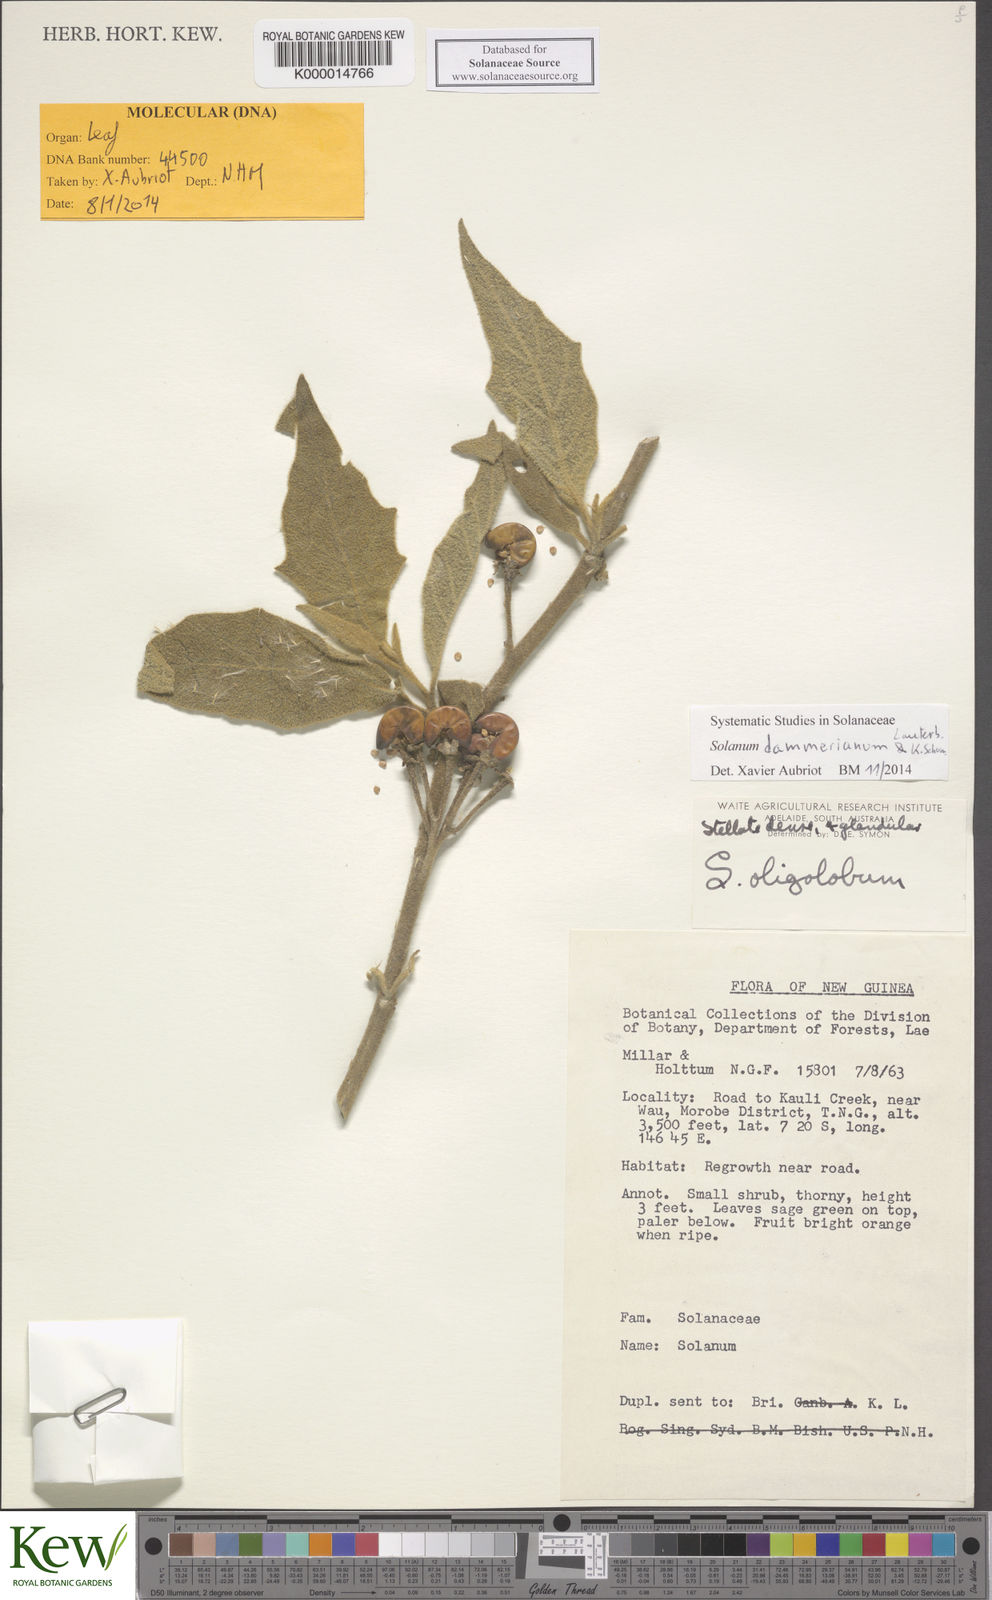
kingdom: Plantae
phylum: Tracheophyta
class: Magnoliopsida
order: Solanales
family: Solanaceae
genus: Solanum
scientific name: Solanum dammerianum
